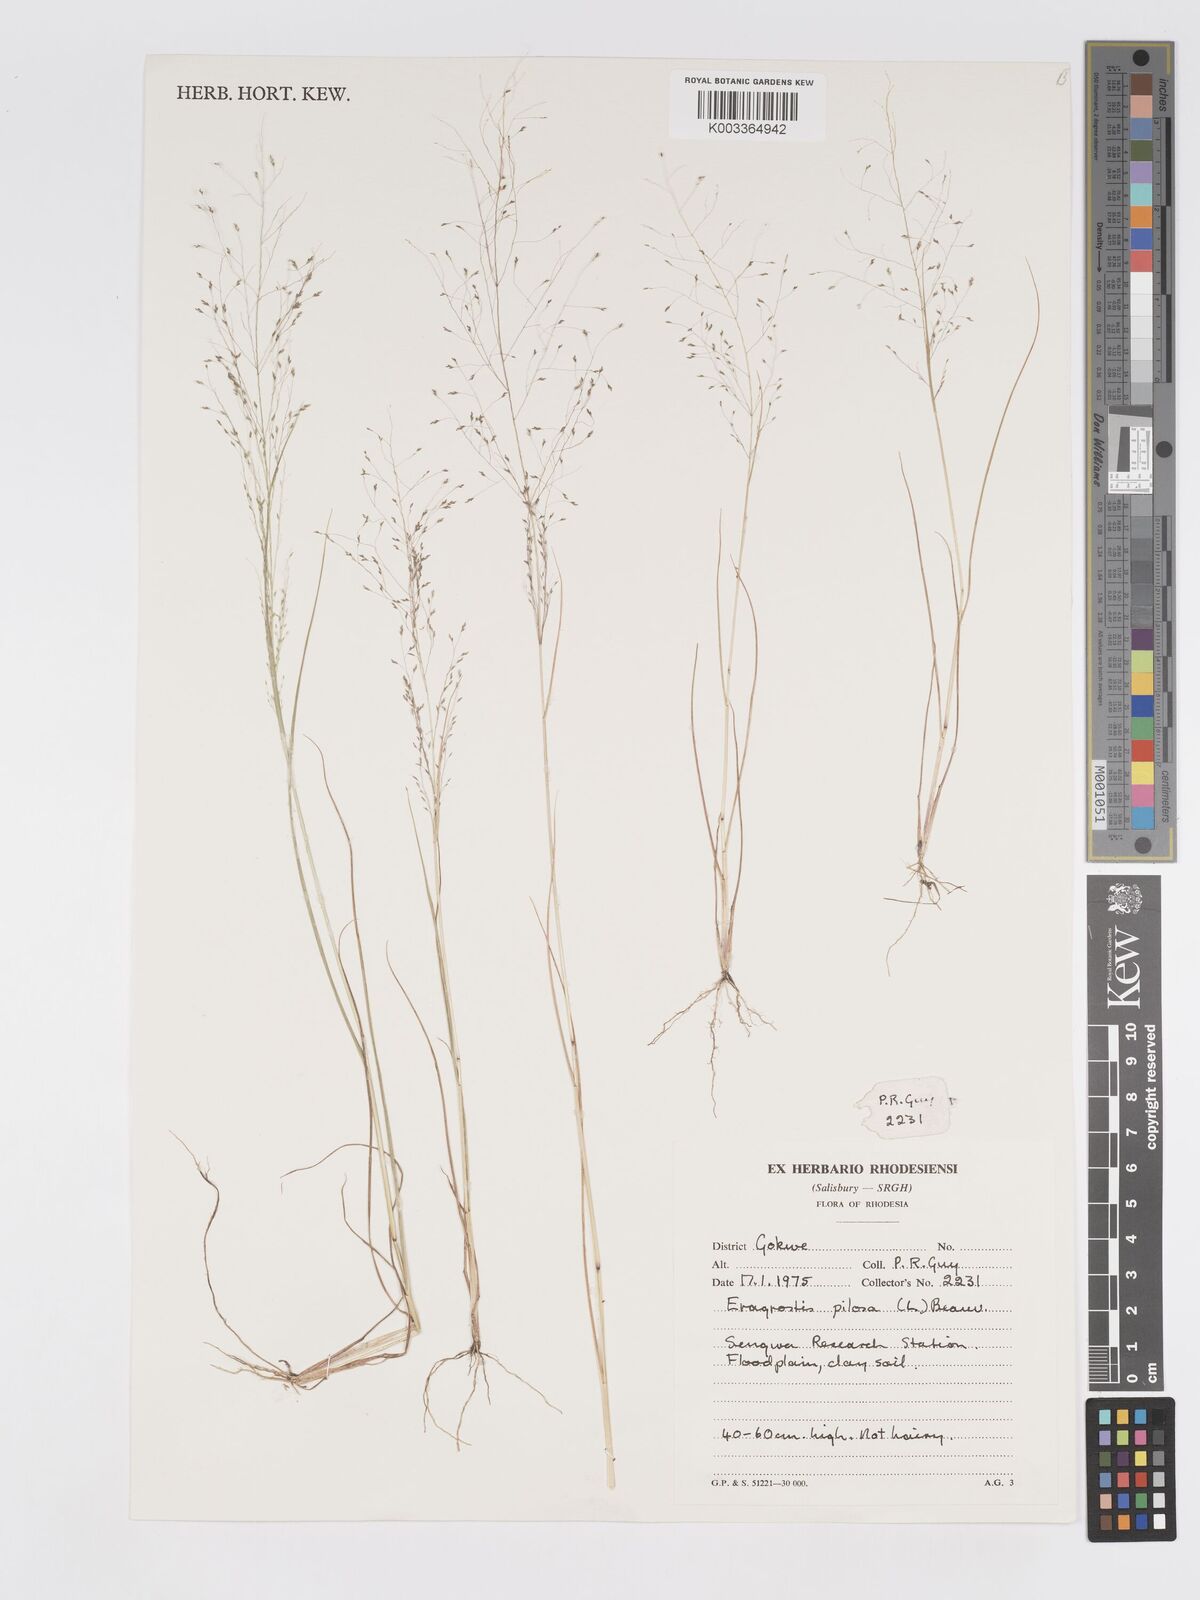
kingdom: Plantae
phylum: Tracheophyta
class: Liliopsida
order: Poales
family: Poaceae
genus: Eragrostis
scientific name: Eragrostis pilosa
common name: Indian lovegrass
